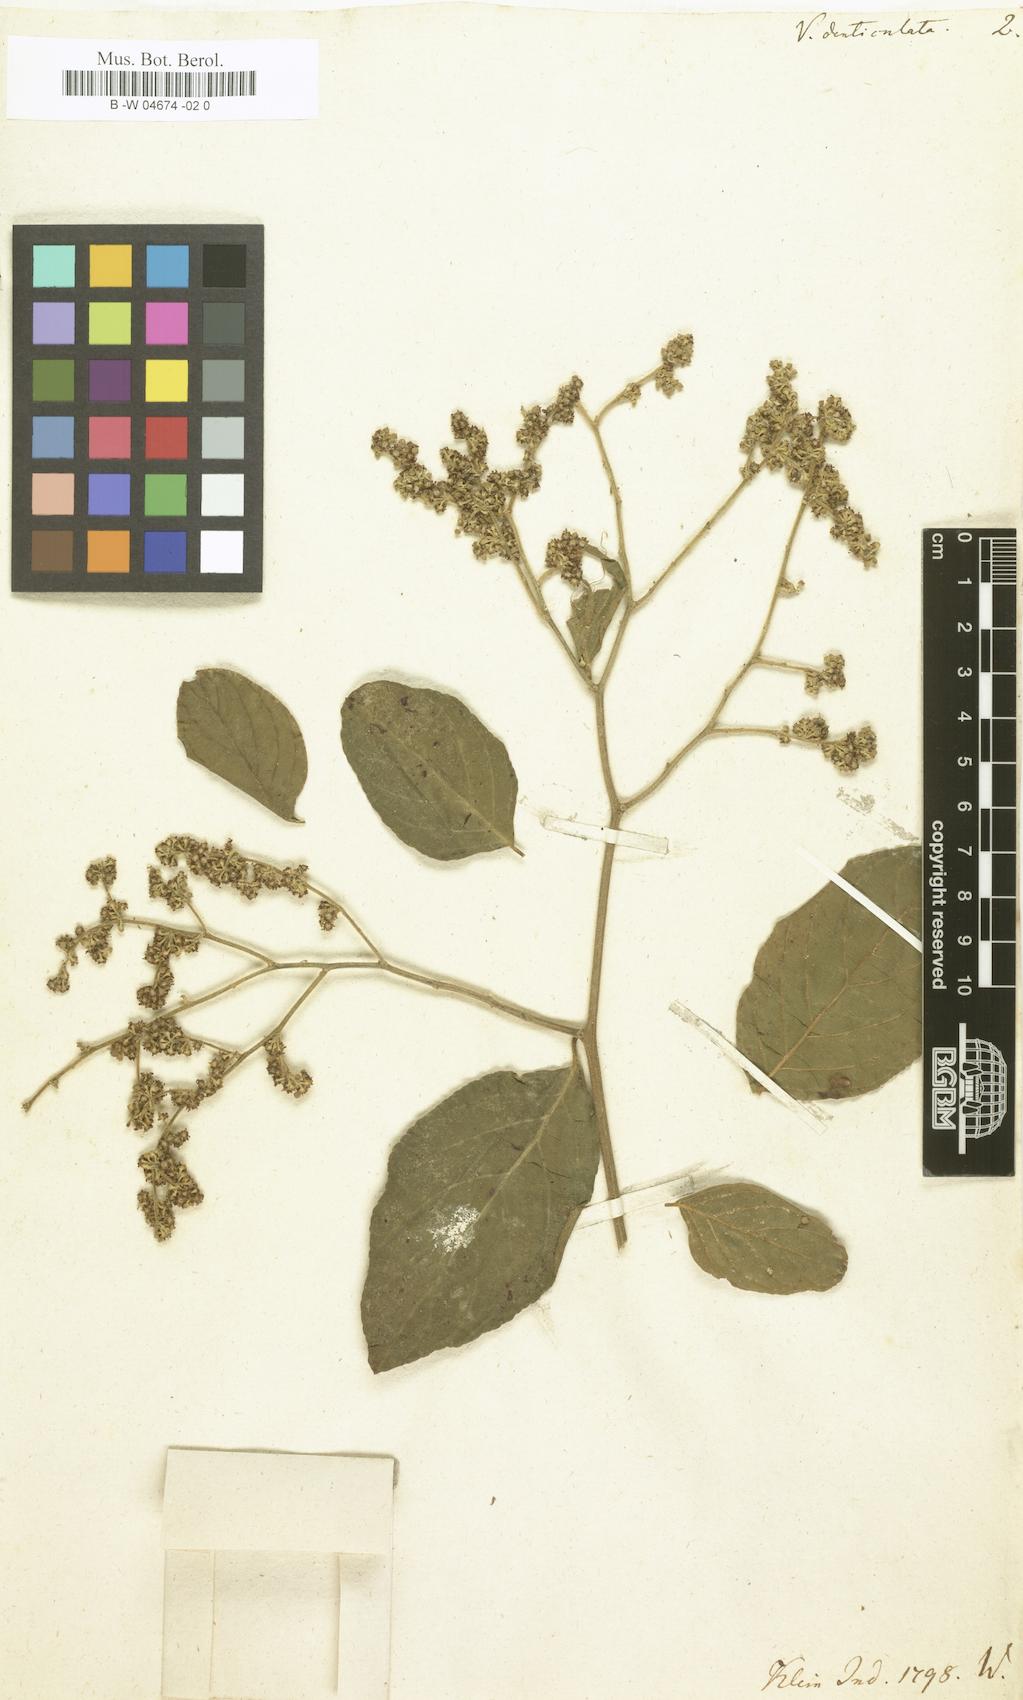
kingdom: Plantae
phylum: Tracheophyta
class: Magnoliopsida
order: Rosales
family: Rhamnaceae
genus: Ventilago
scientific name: Ventilago denticulata
